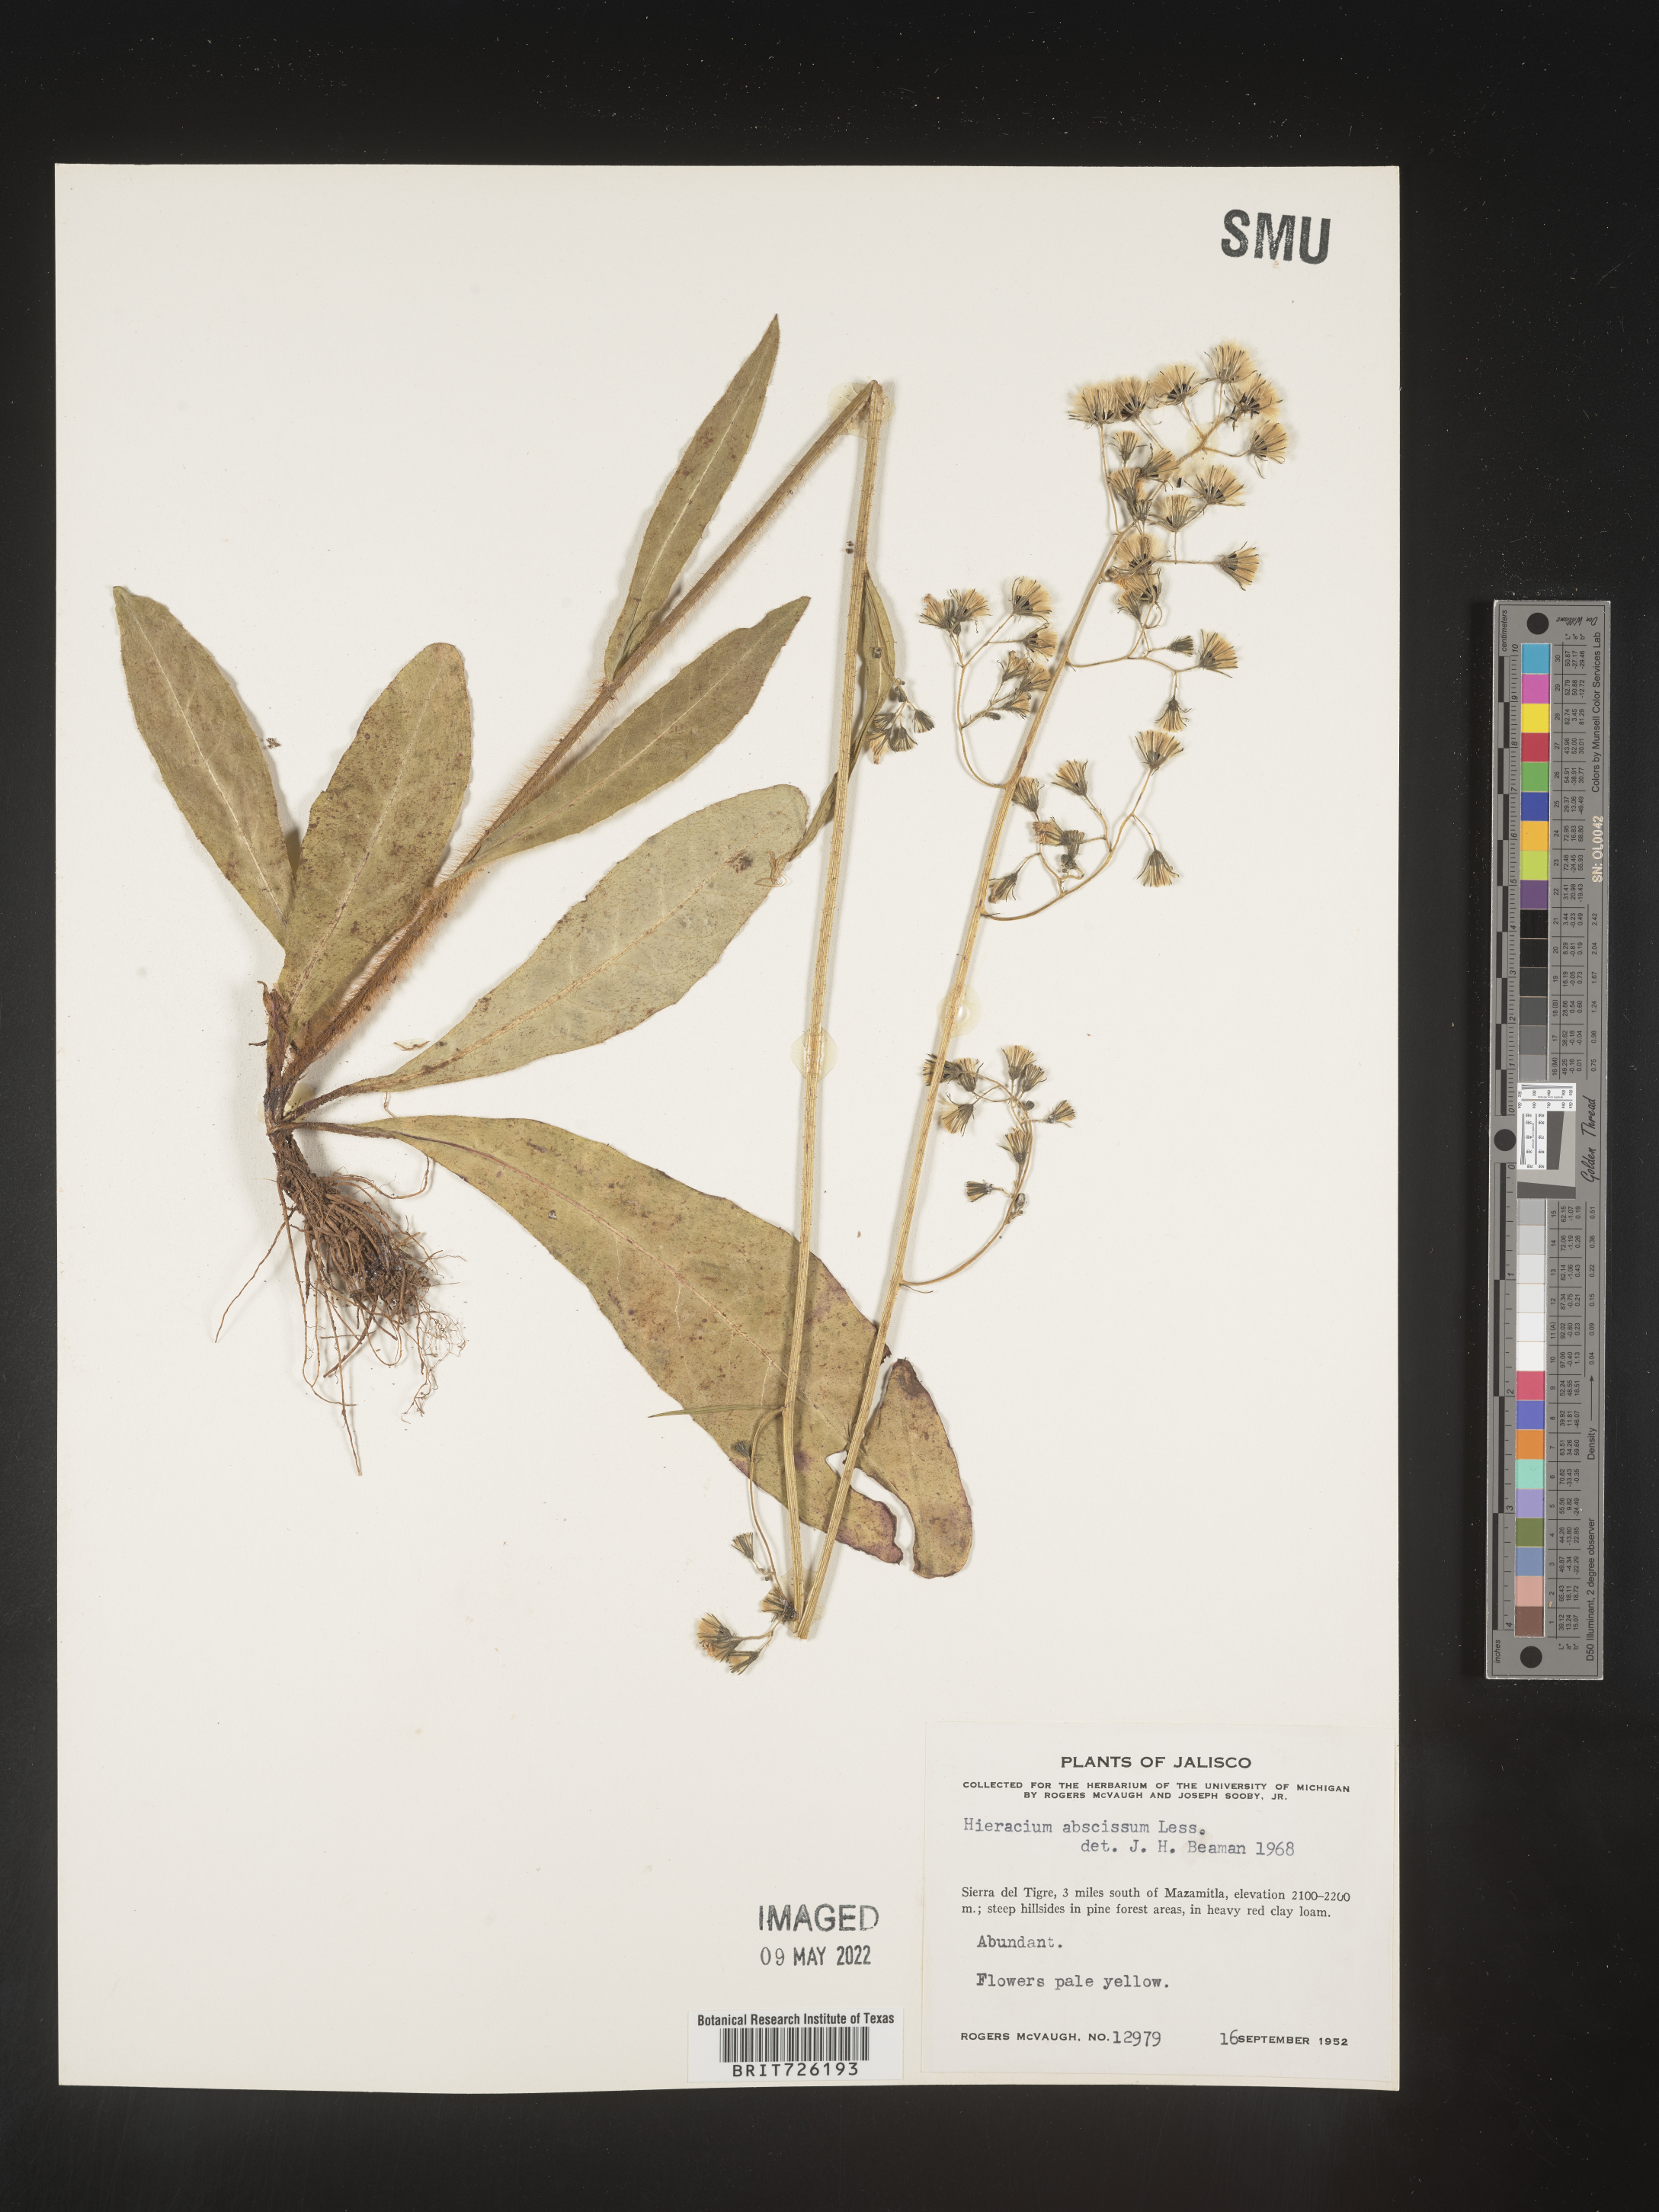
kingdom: Plantae
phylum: Tracheophyta
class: Magnoliopsida
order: Asterales
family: Asteraceae
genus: Hieracium
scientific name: Hieracium
